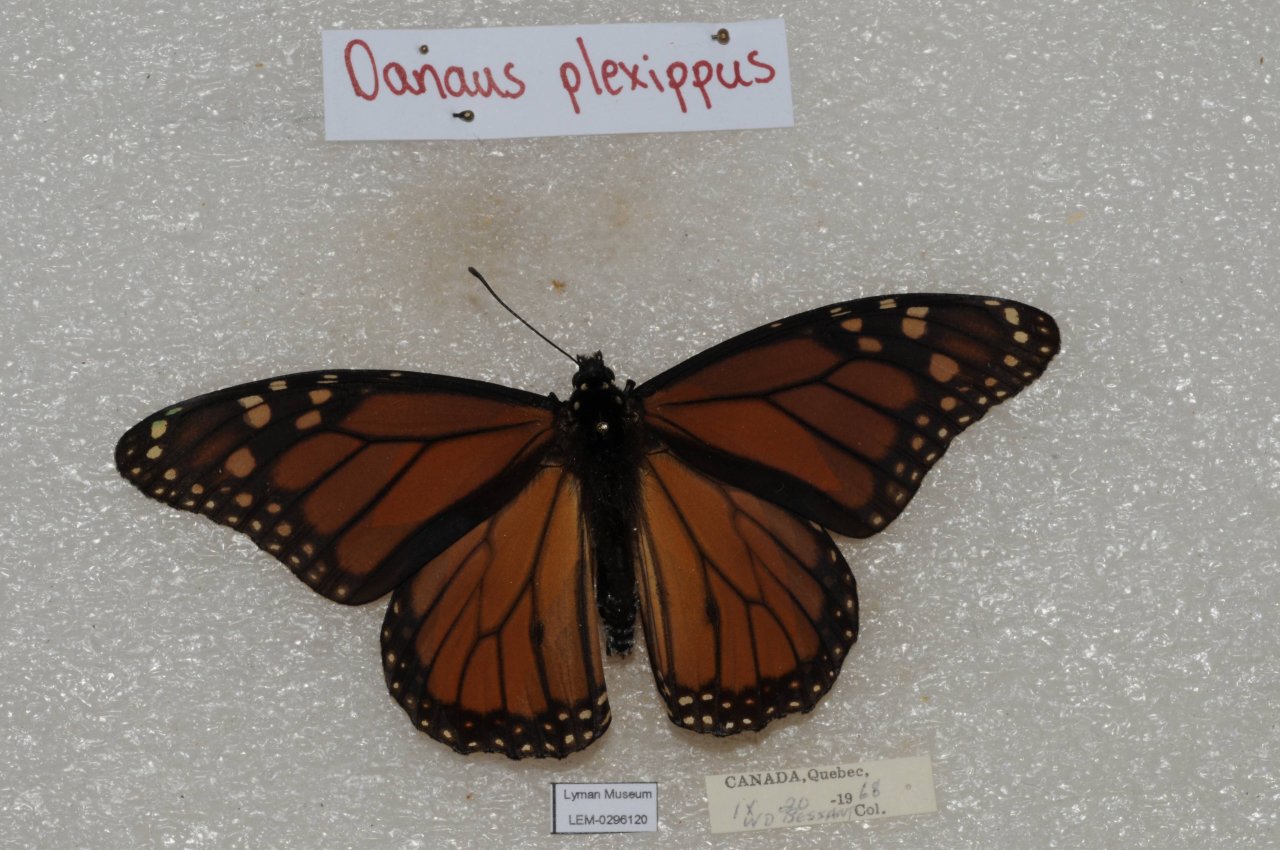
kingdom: Animalia
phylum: Arthropoda
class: Insecta
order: Lepidoptera
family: Nymphalidae
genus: Danaus
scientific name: Danaus plexippus
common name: Monarch
